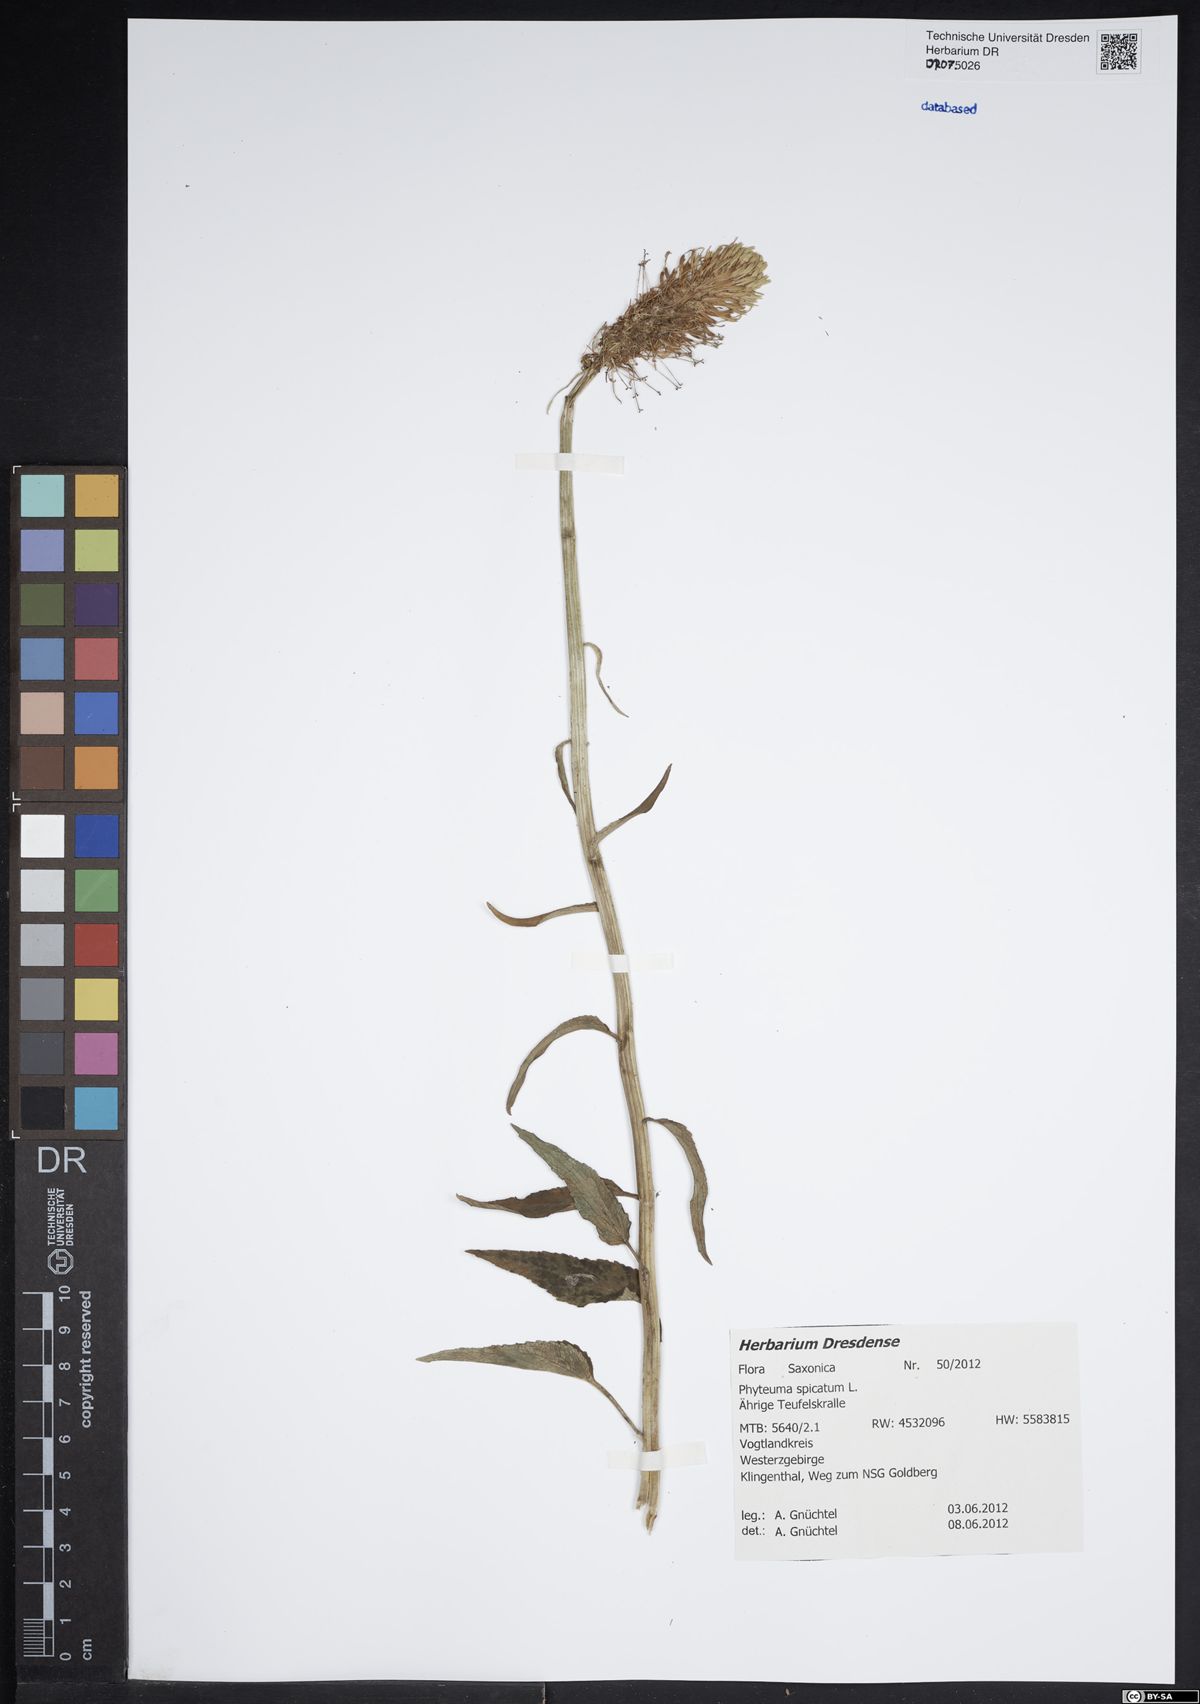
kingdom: Plantae
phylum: Tracheophyta
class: Magnoliopsida
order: Asterales
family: Campanulaceae
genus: Phyteuma
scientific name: Phyteuma spicatum
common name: Spiked rampion
